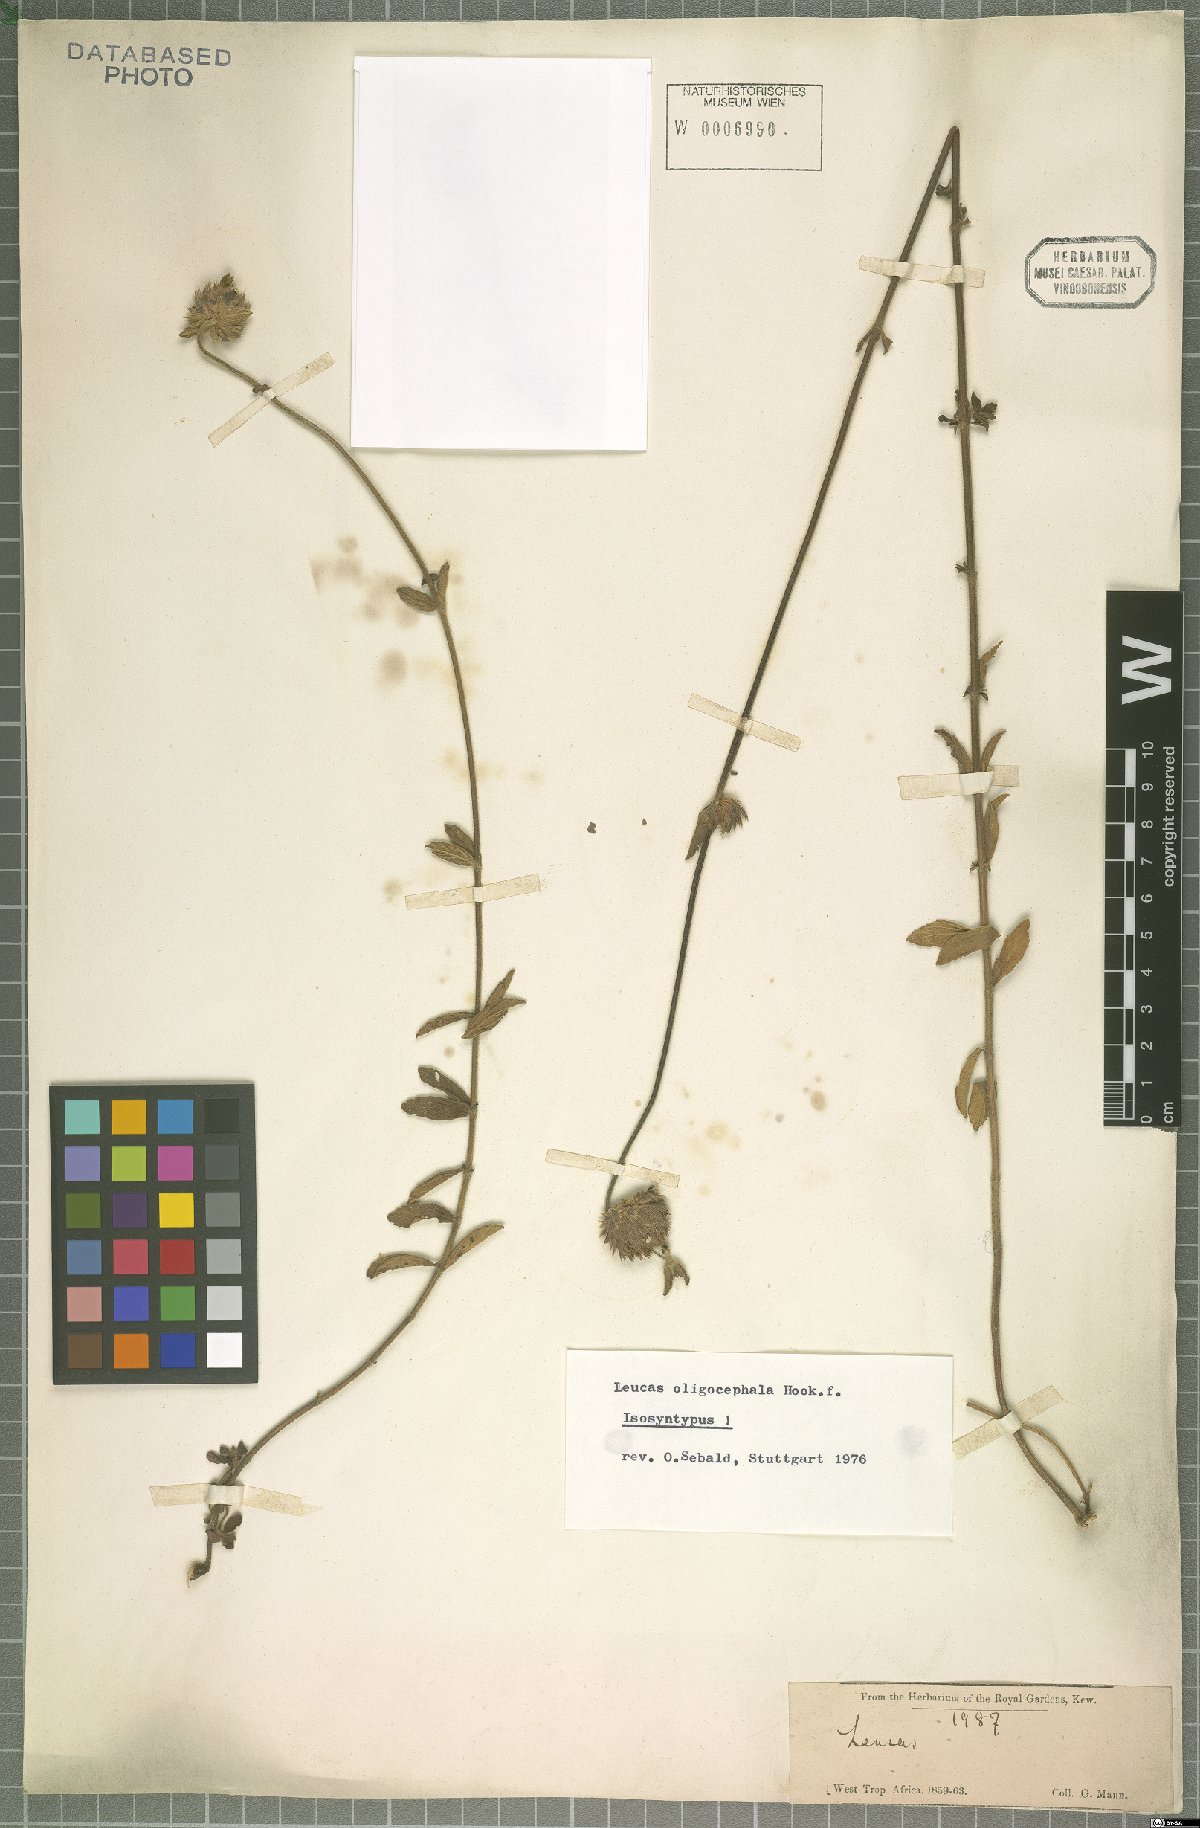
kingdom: Plantae
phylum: Tracheophyta
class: Magnoliopsida
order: Lamiales
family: Lamiaceae
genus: Leucas
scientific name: Leucas oligocephala
